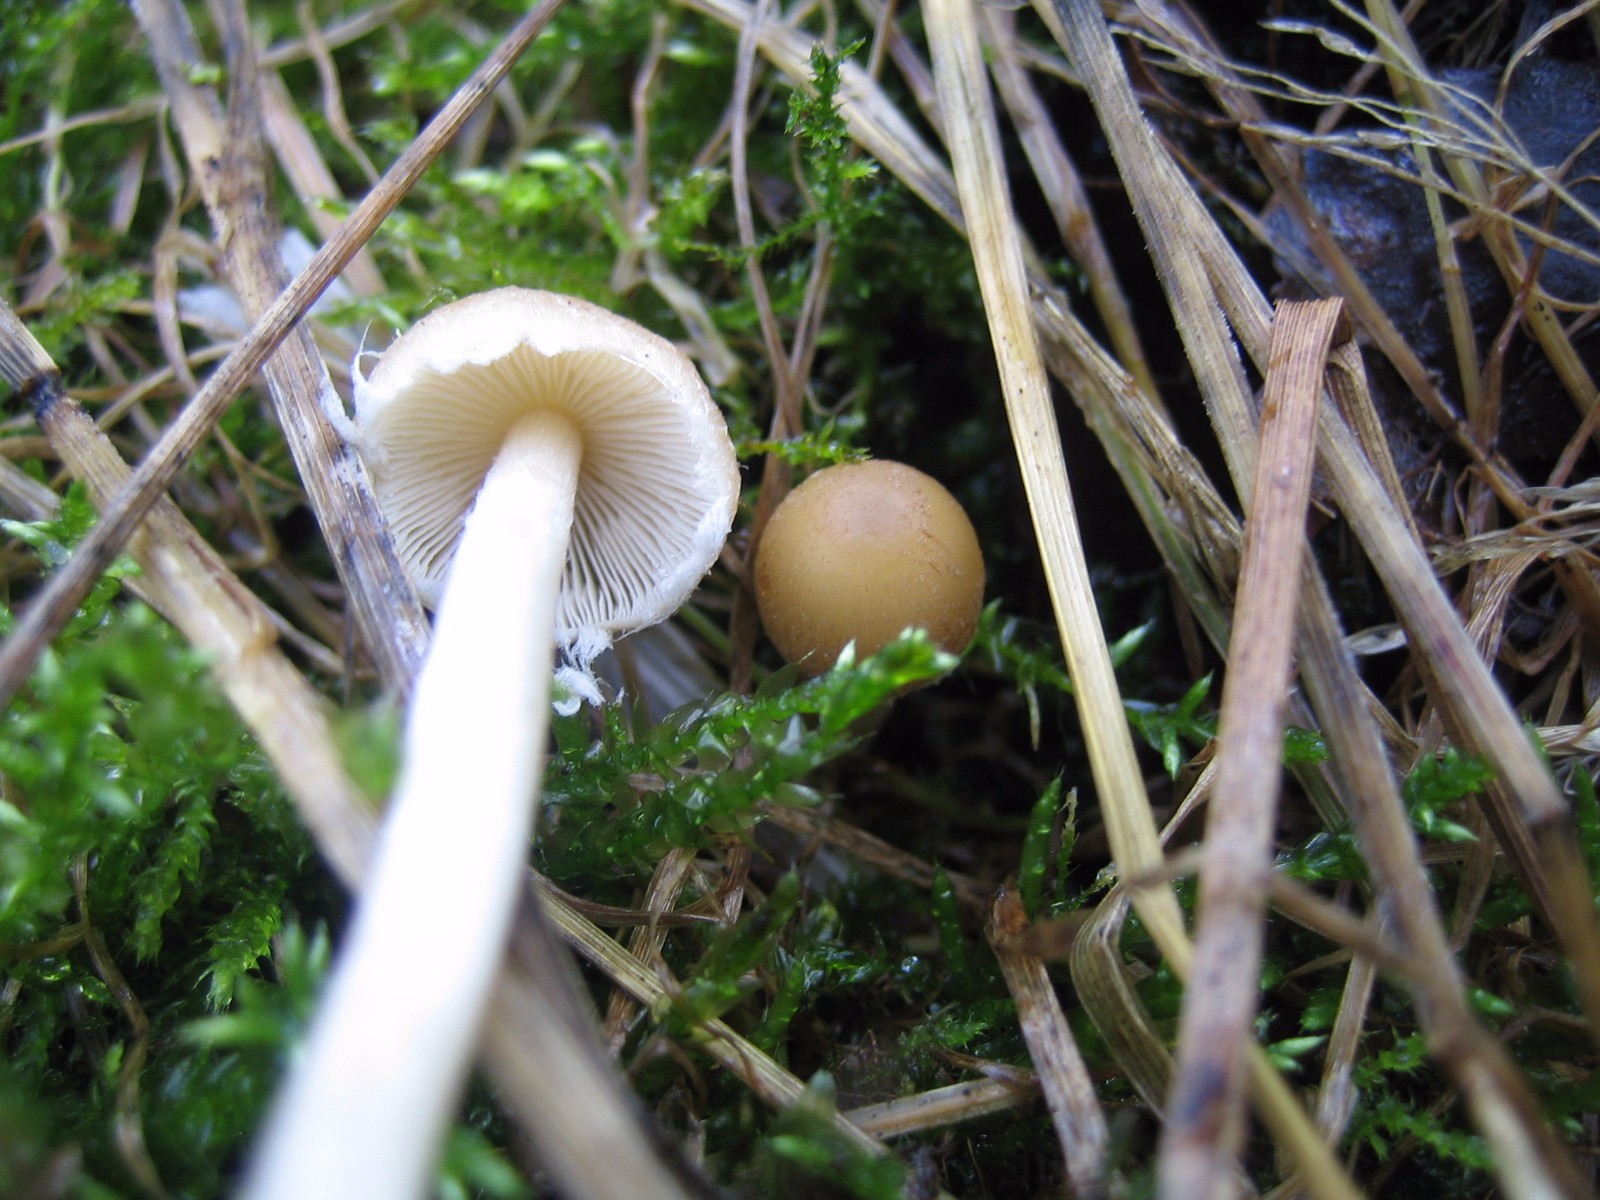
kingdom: Fungi
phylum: Basidiomycota
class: Agaricomycetes
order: Agaricales
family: Psathyrellaceae
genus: Candolleomyces
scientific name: Candolleomyces candolleanus
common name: Candolles mørkhat
